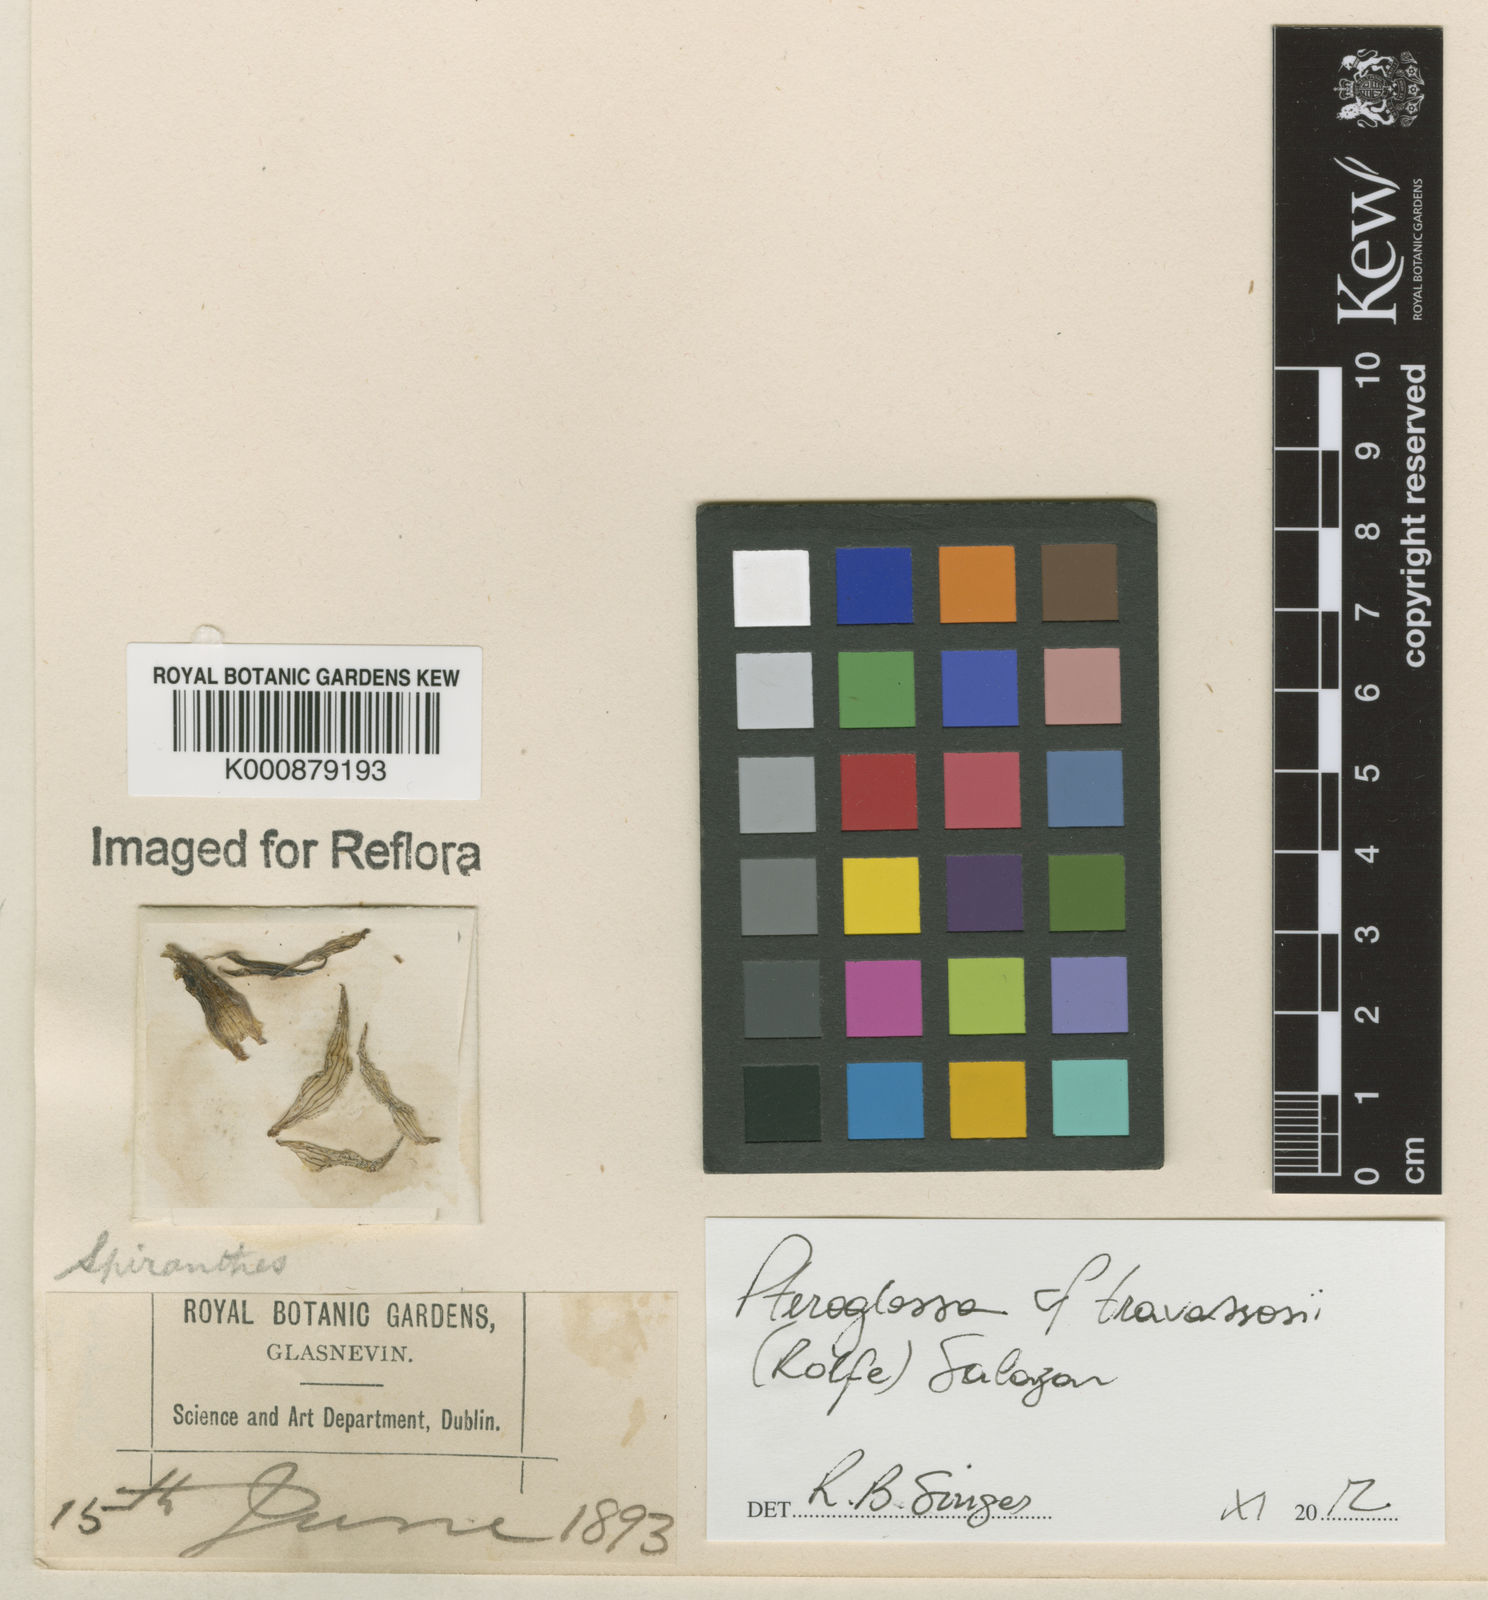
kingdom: Plantae
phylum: Tracheophyta
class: Liliopsida
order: Asparagales
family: Orchidaceae
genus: Pteroglossa
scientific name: Pteroglossa roseoalba
